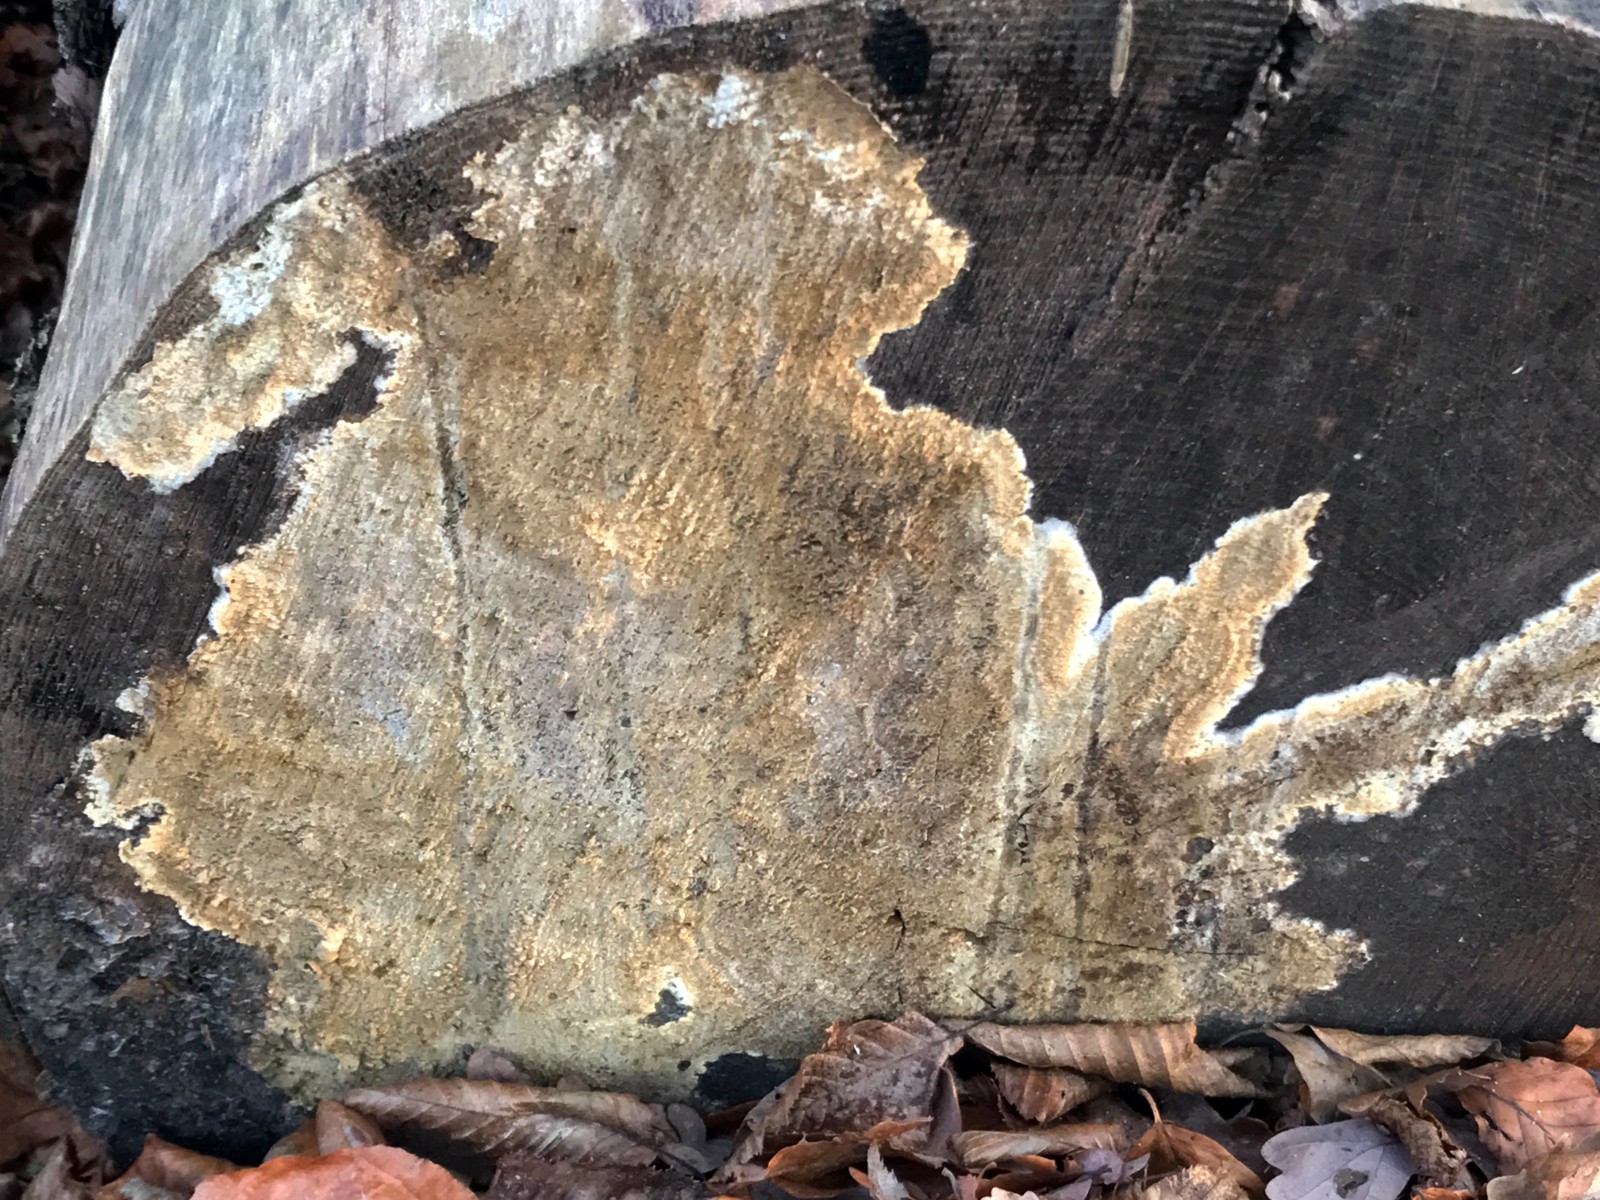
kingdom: Fungi
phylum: Basidiomycota
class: Agaricomycetes
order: Boletales
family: Coniophoraceae
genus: Coniophora
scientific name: Coniophora puteana
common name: gul tømmersvamp
